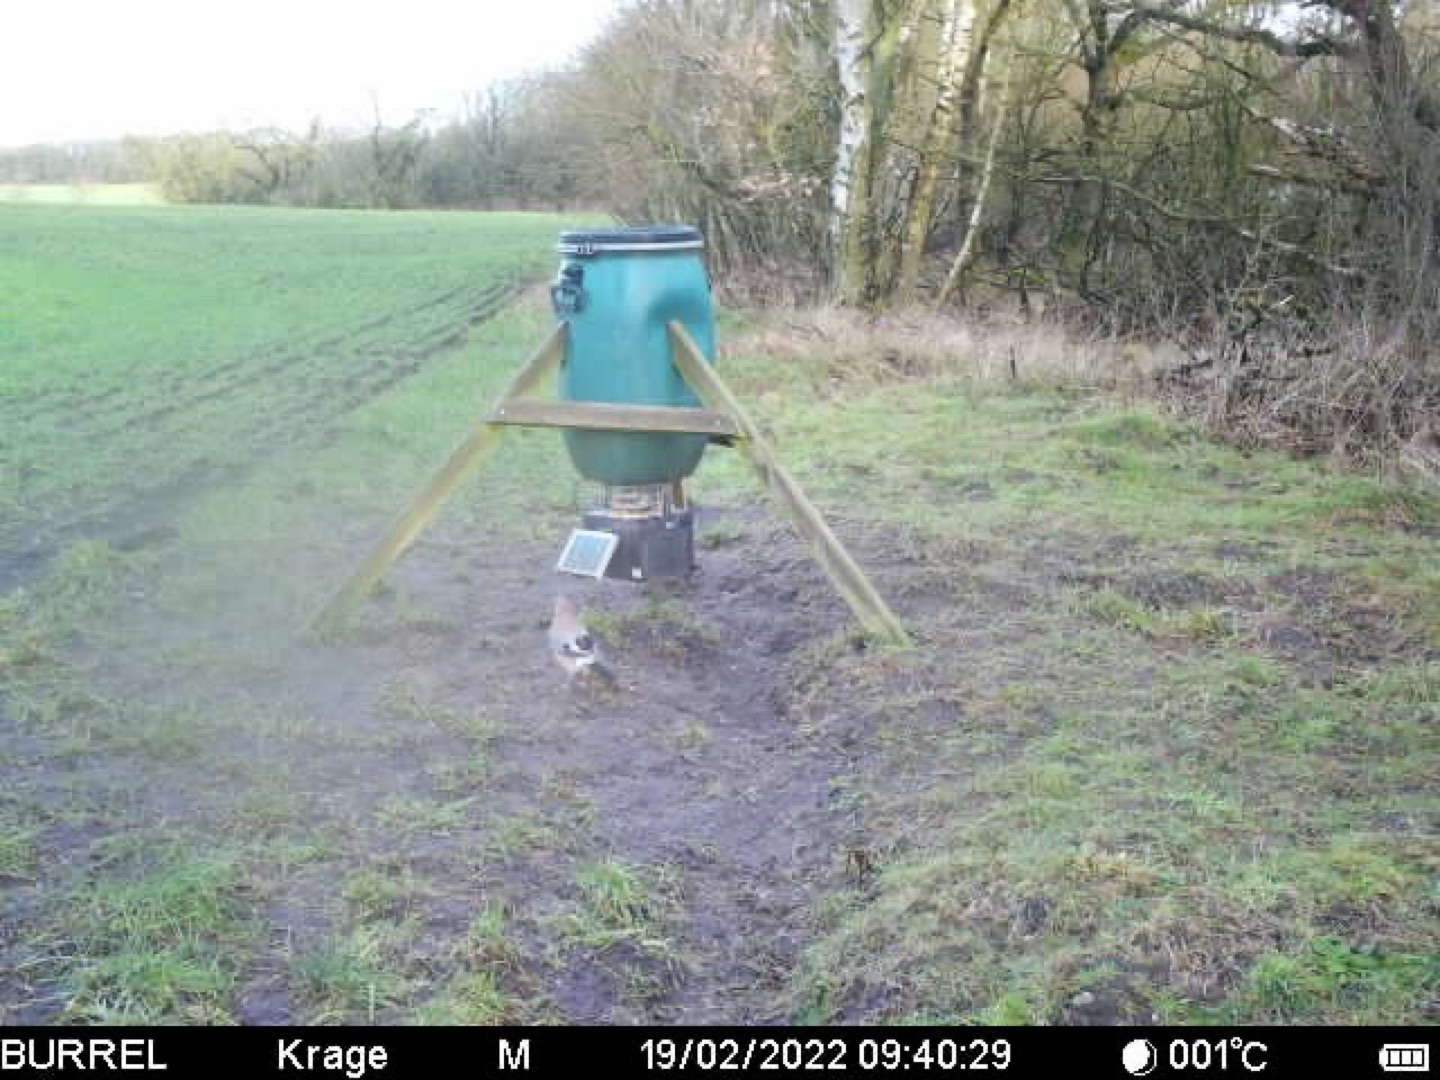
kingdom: Animalia
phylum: Chordata
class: Aves
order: Passeriformes
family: Corvidae
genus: Garrulus
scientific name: Garrulus glandarius
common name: Skovskade
